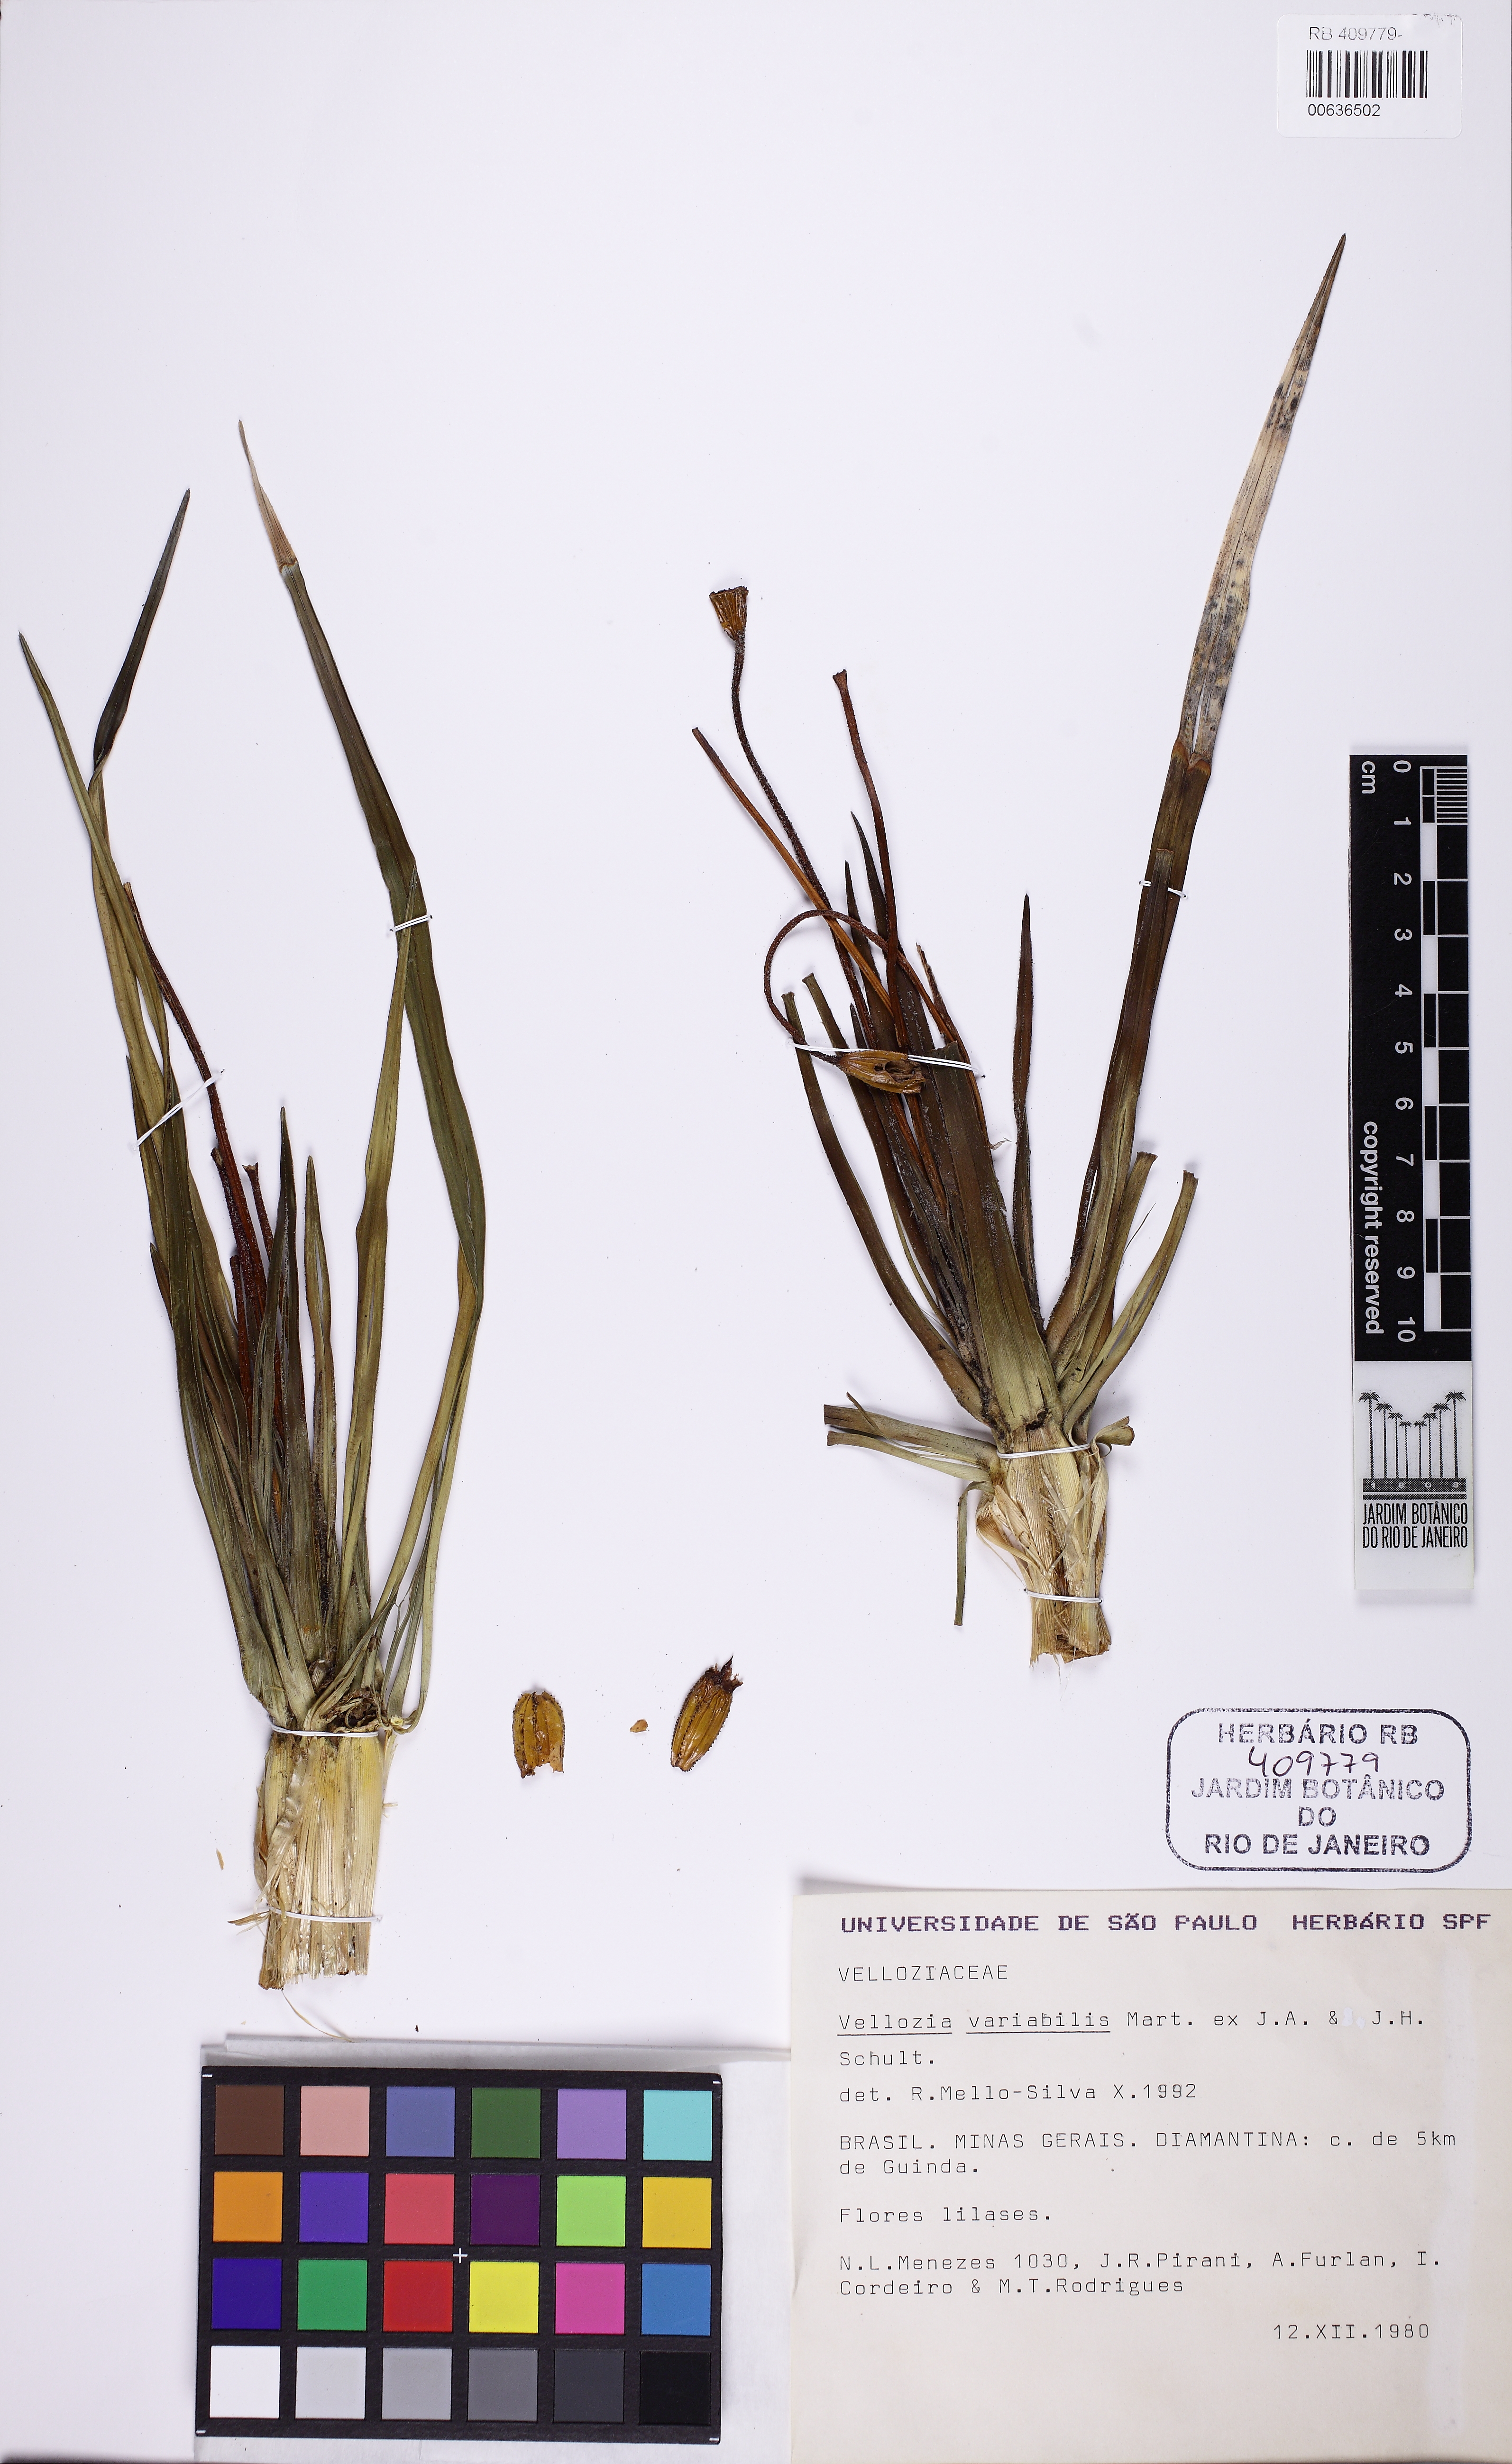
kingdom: Plantae
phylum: Tracheophyta
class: Liliopsida
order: Pandanales
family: Velloziaceae
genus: Vellozia
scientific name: Vellozia variabilis
